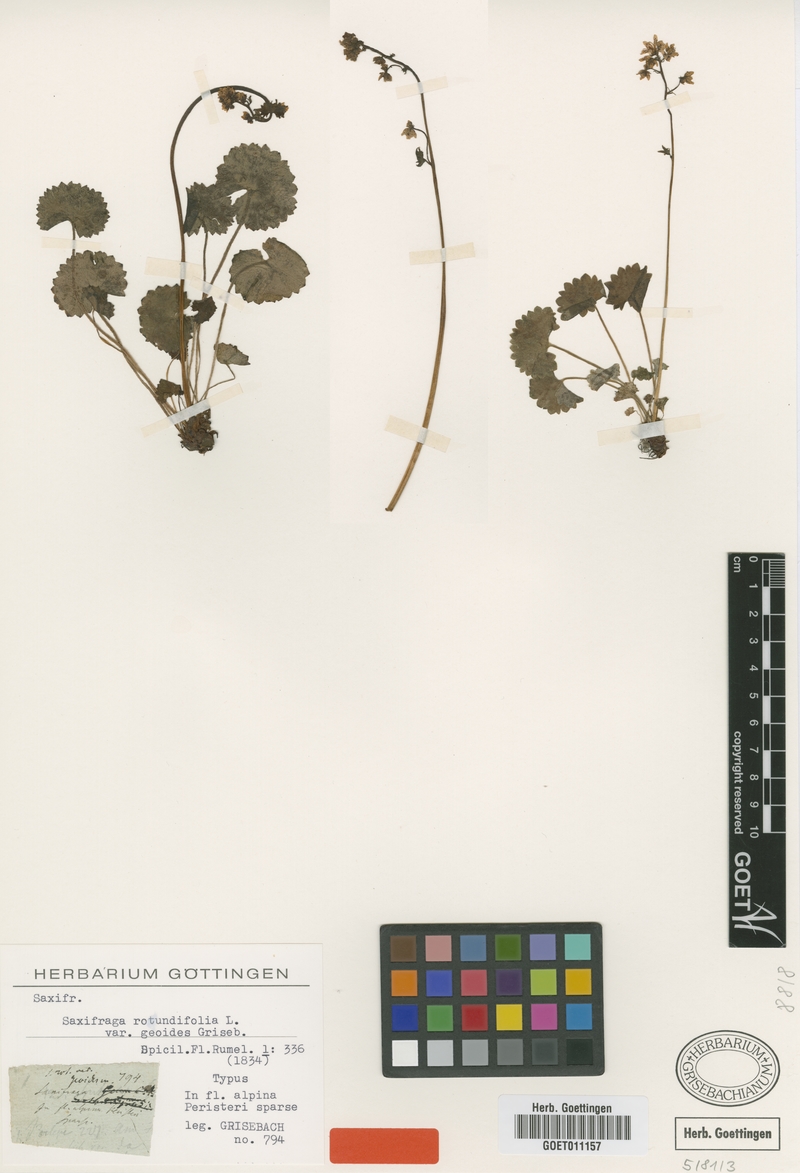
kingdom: Plantae
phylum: Tracheophyta
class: Magnoliopsida
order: Saxifragales
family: Saxifragaceae
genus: Saxifraga
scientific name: Saxifraga rotundifolia
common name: Round-leaved saxifrage
